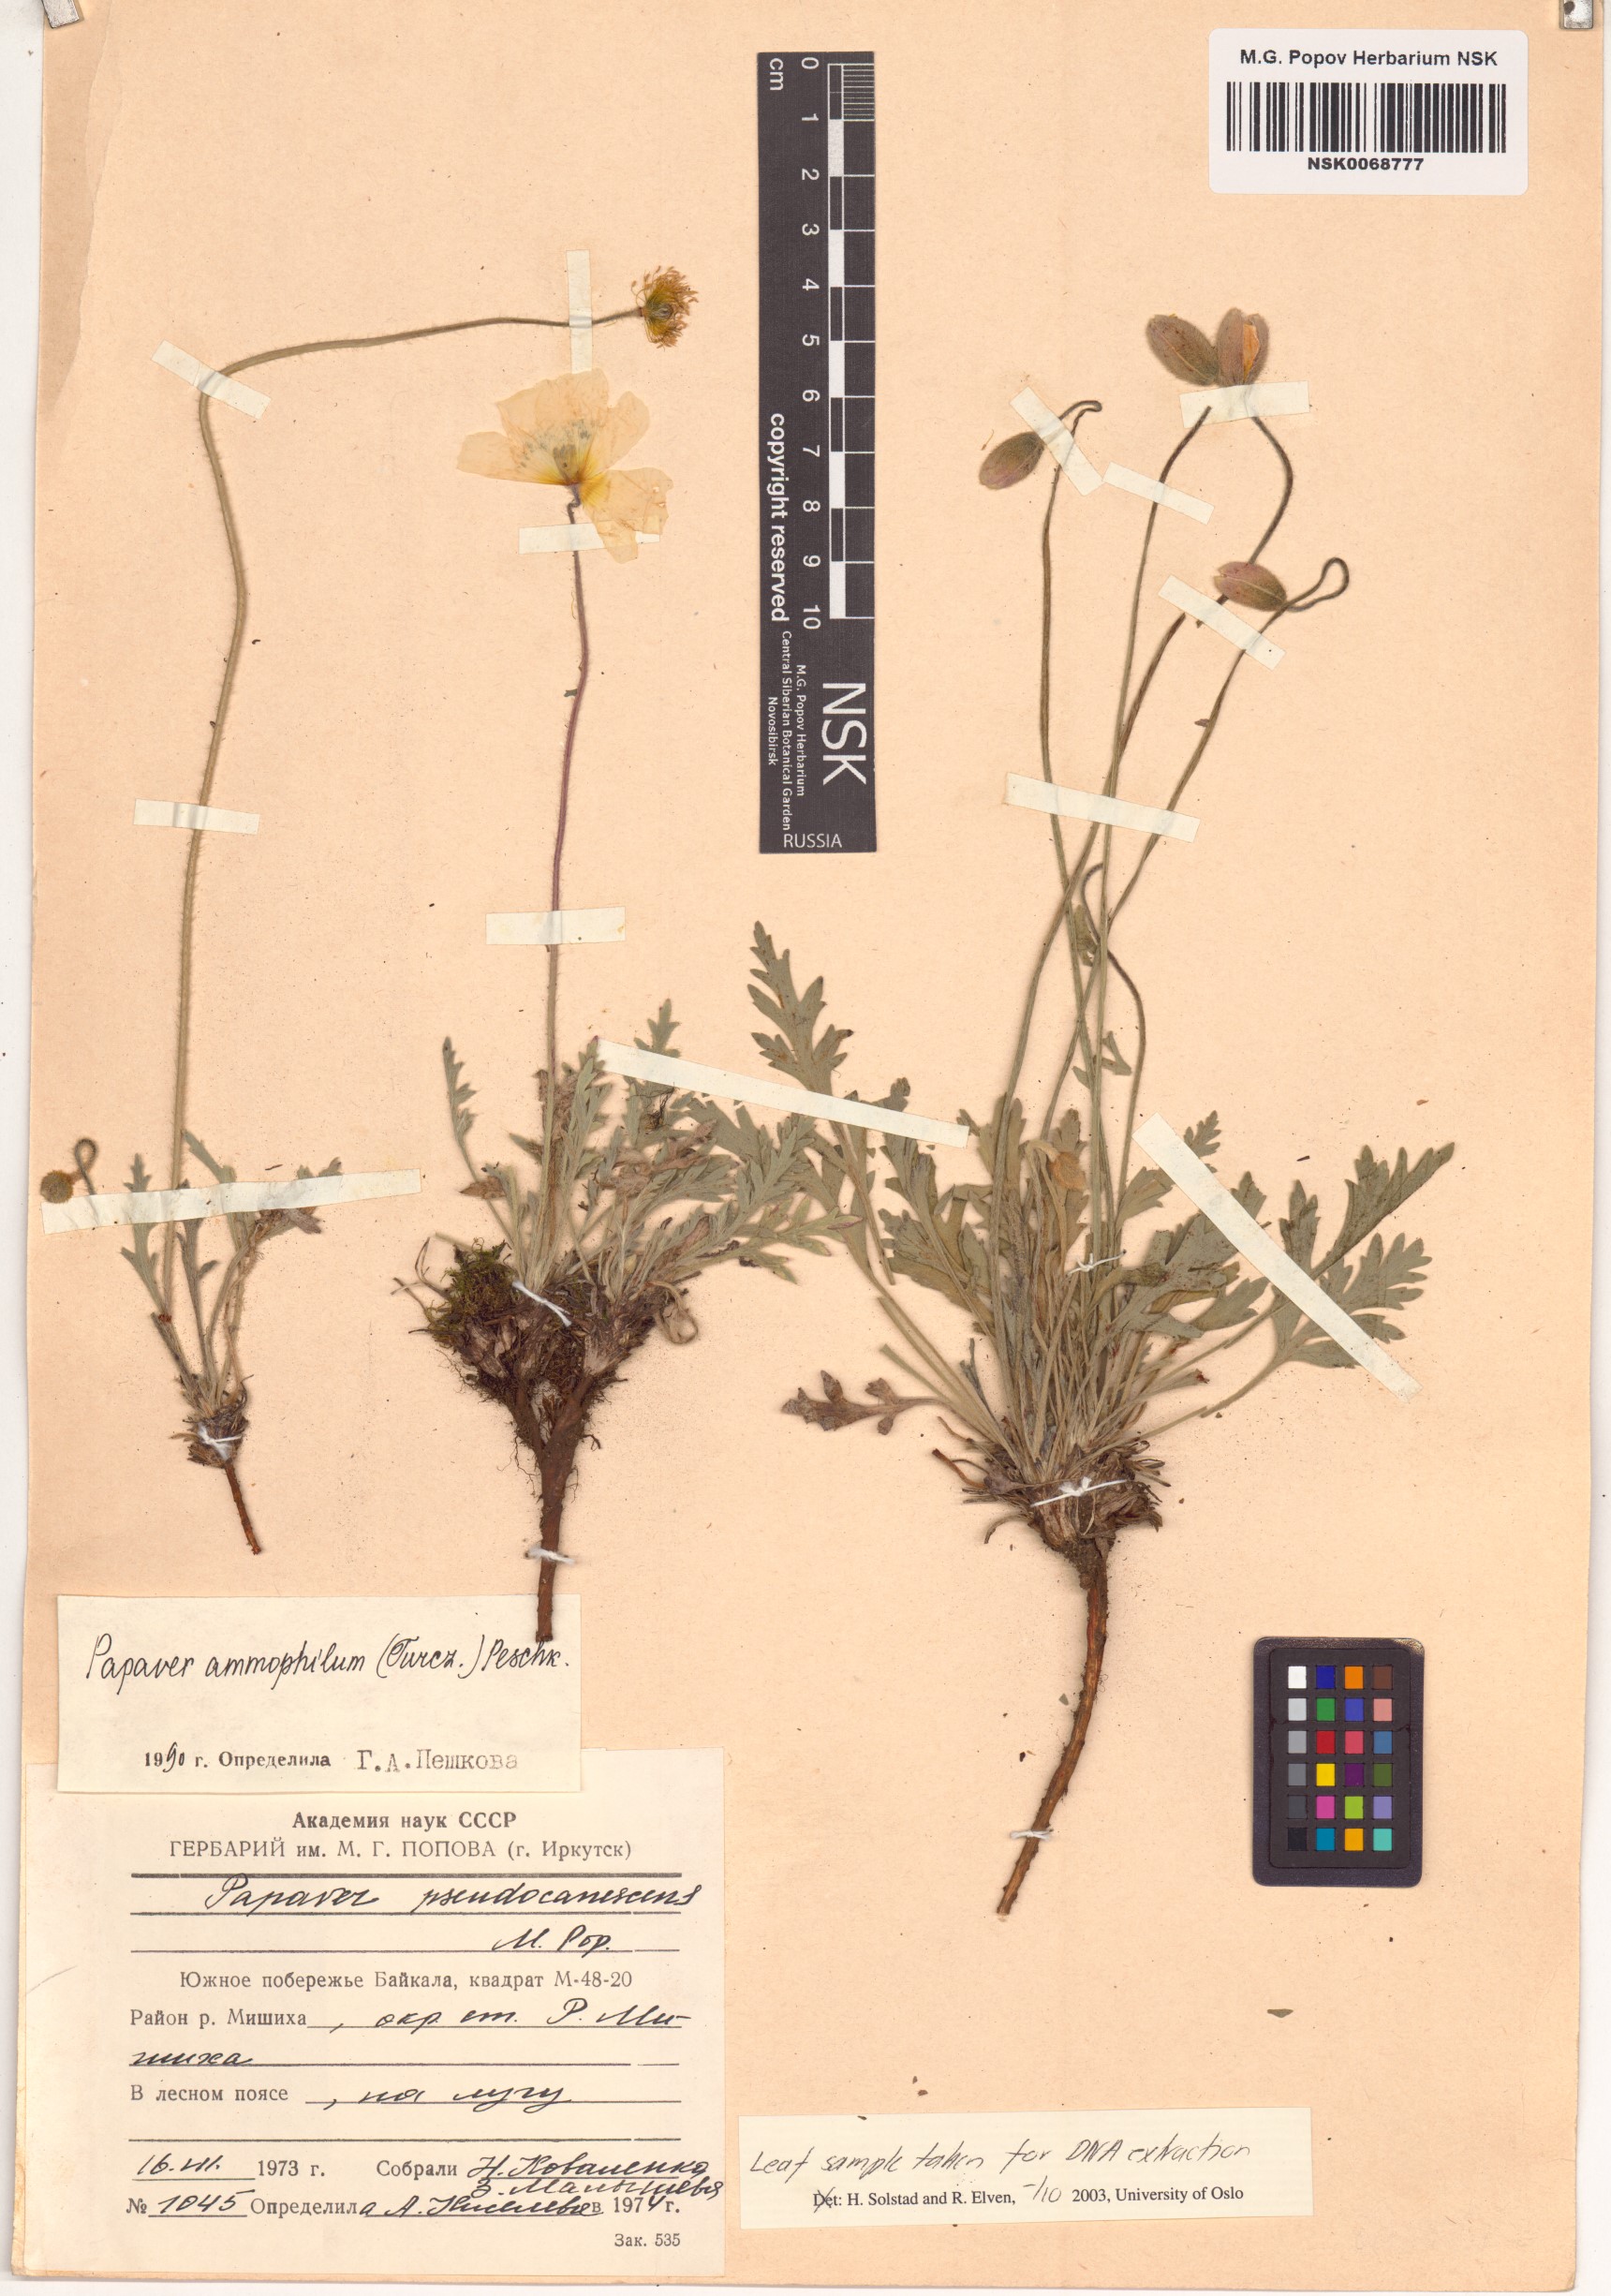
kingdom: Plantae
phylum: Tracheophyta
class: Magnoliopsida
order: Ranunculales
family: Papaveraceae
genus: Papaver
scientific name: Papaver nudicaule
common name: Arctic poppy
